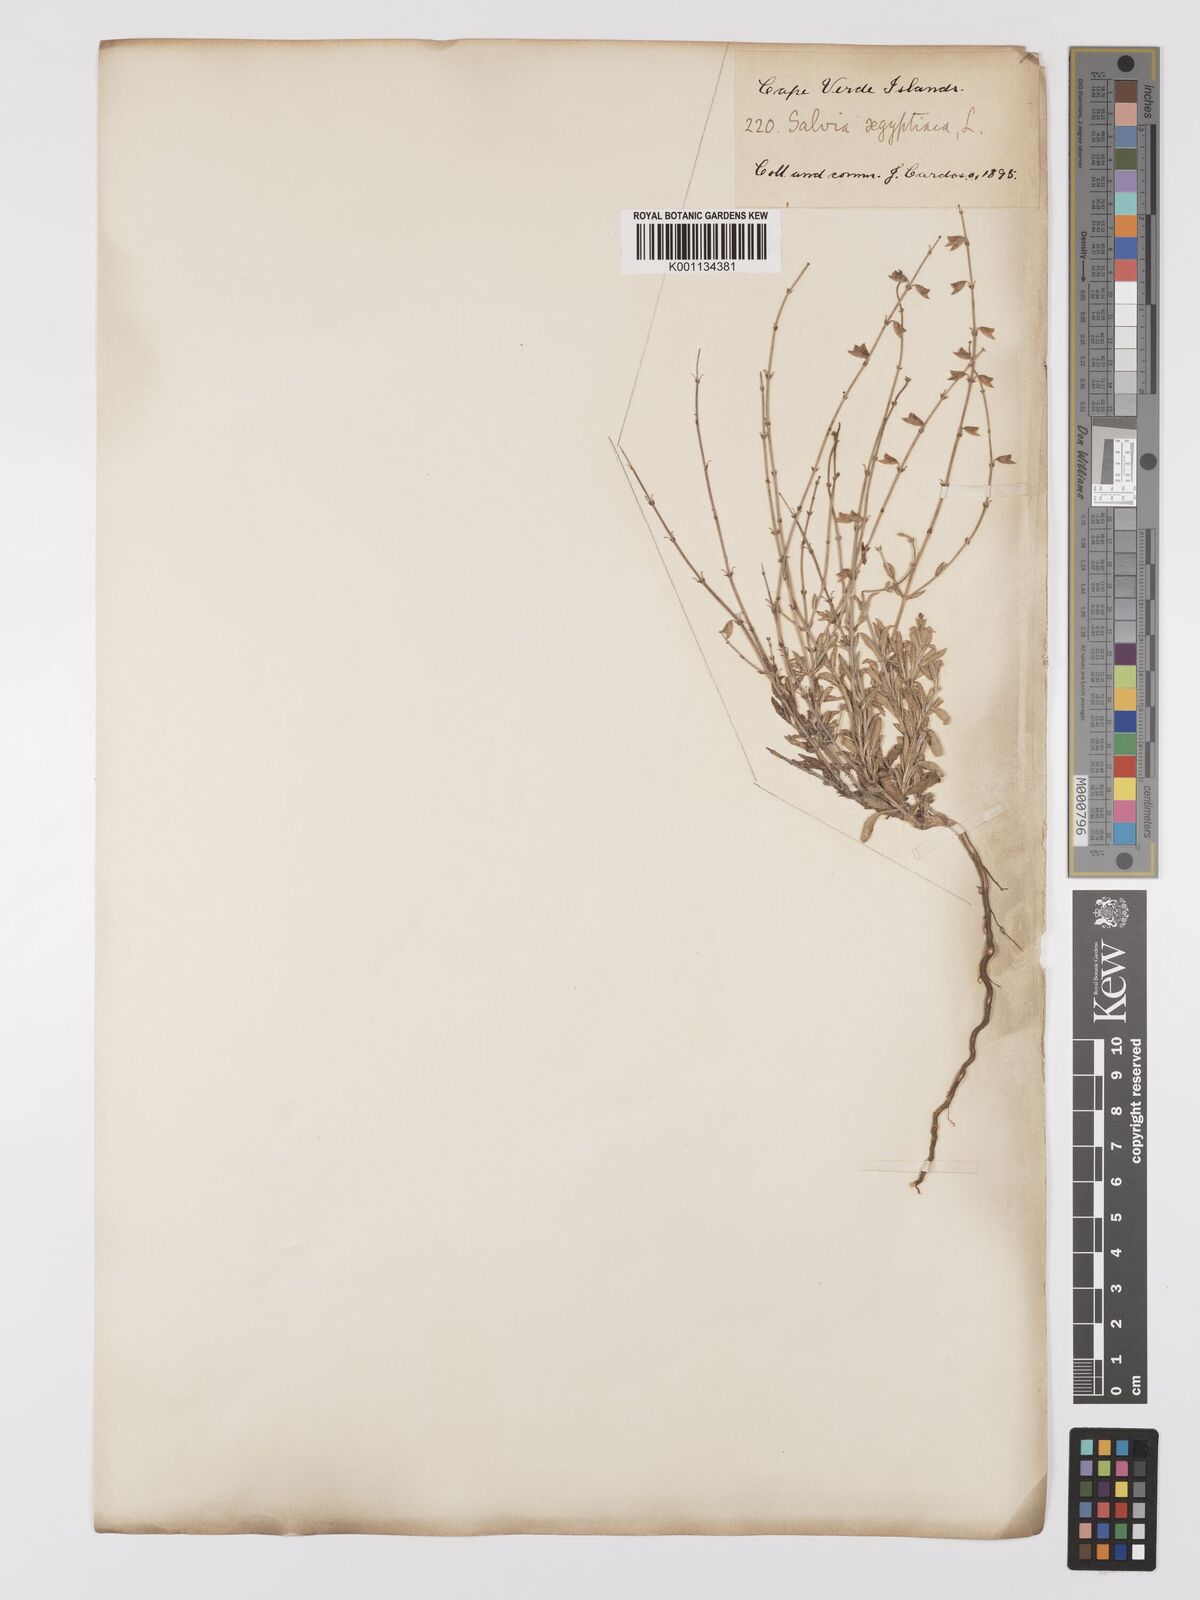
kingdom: Plantae
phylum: Tracheophyta
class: Magnoliopsida
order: Lamiales
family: Lamiaceae
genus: Salvia
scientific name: Salvia aegyptiaca
